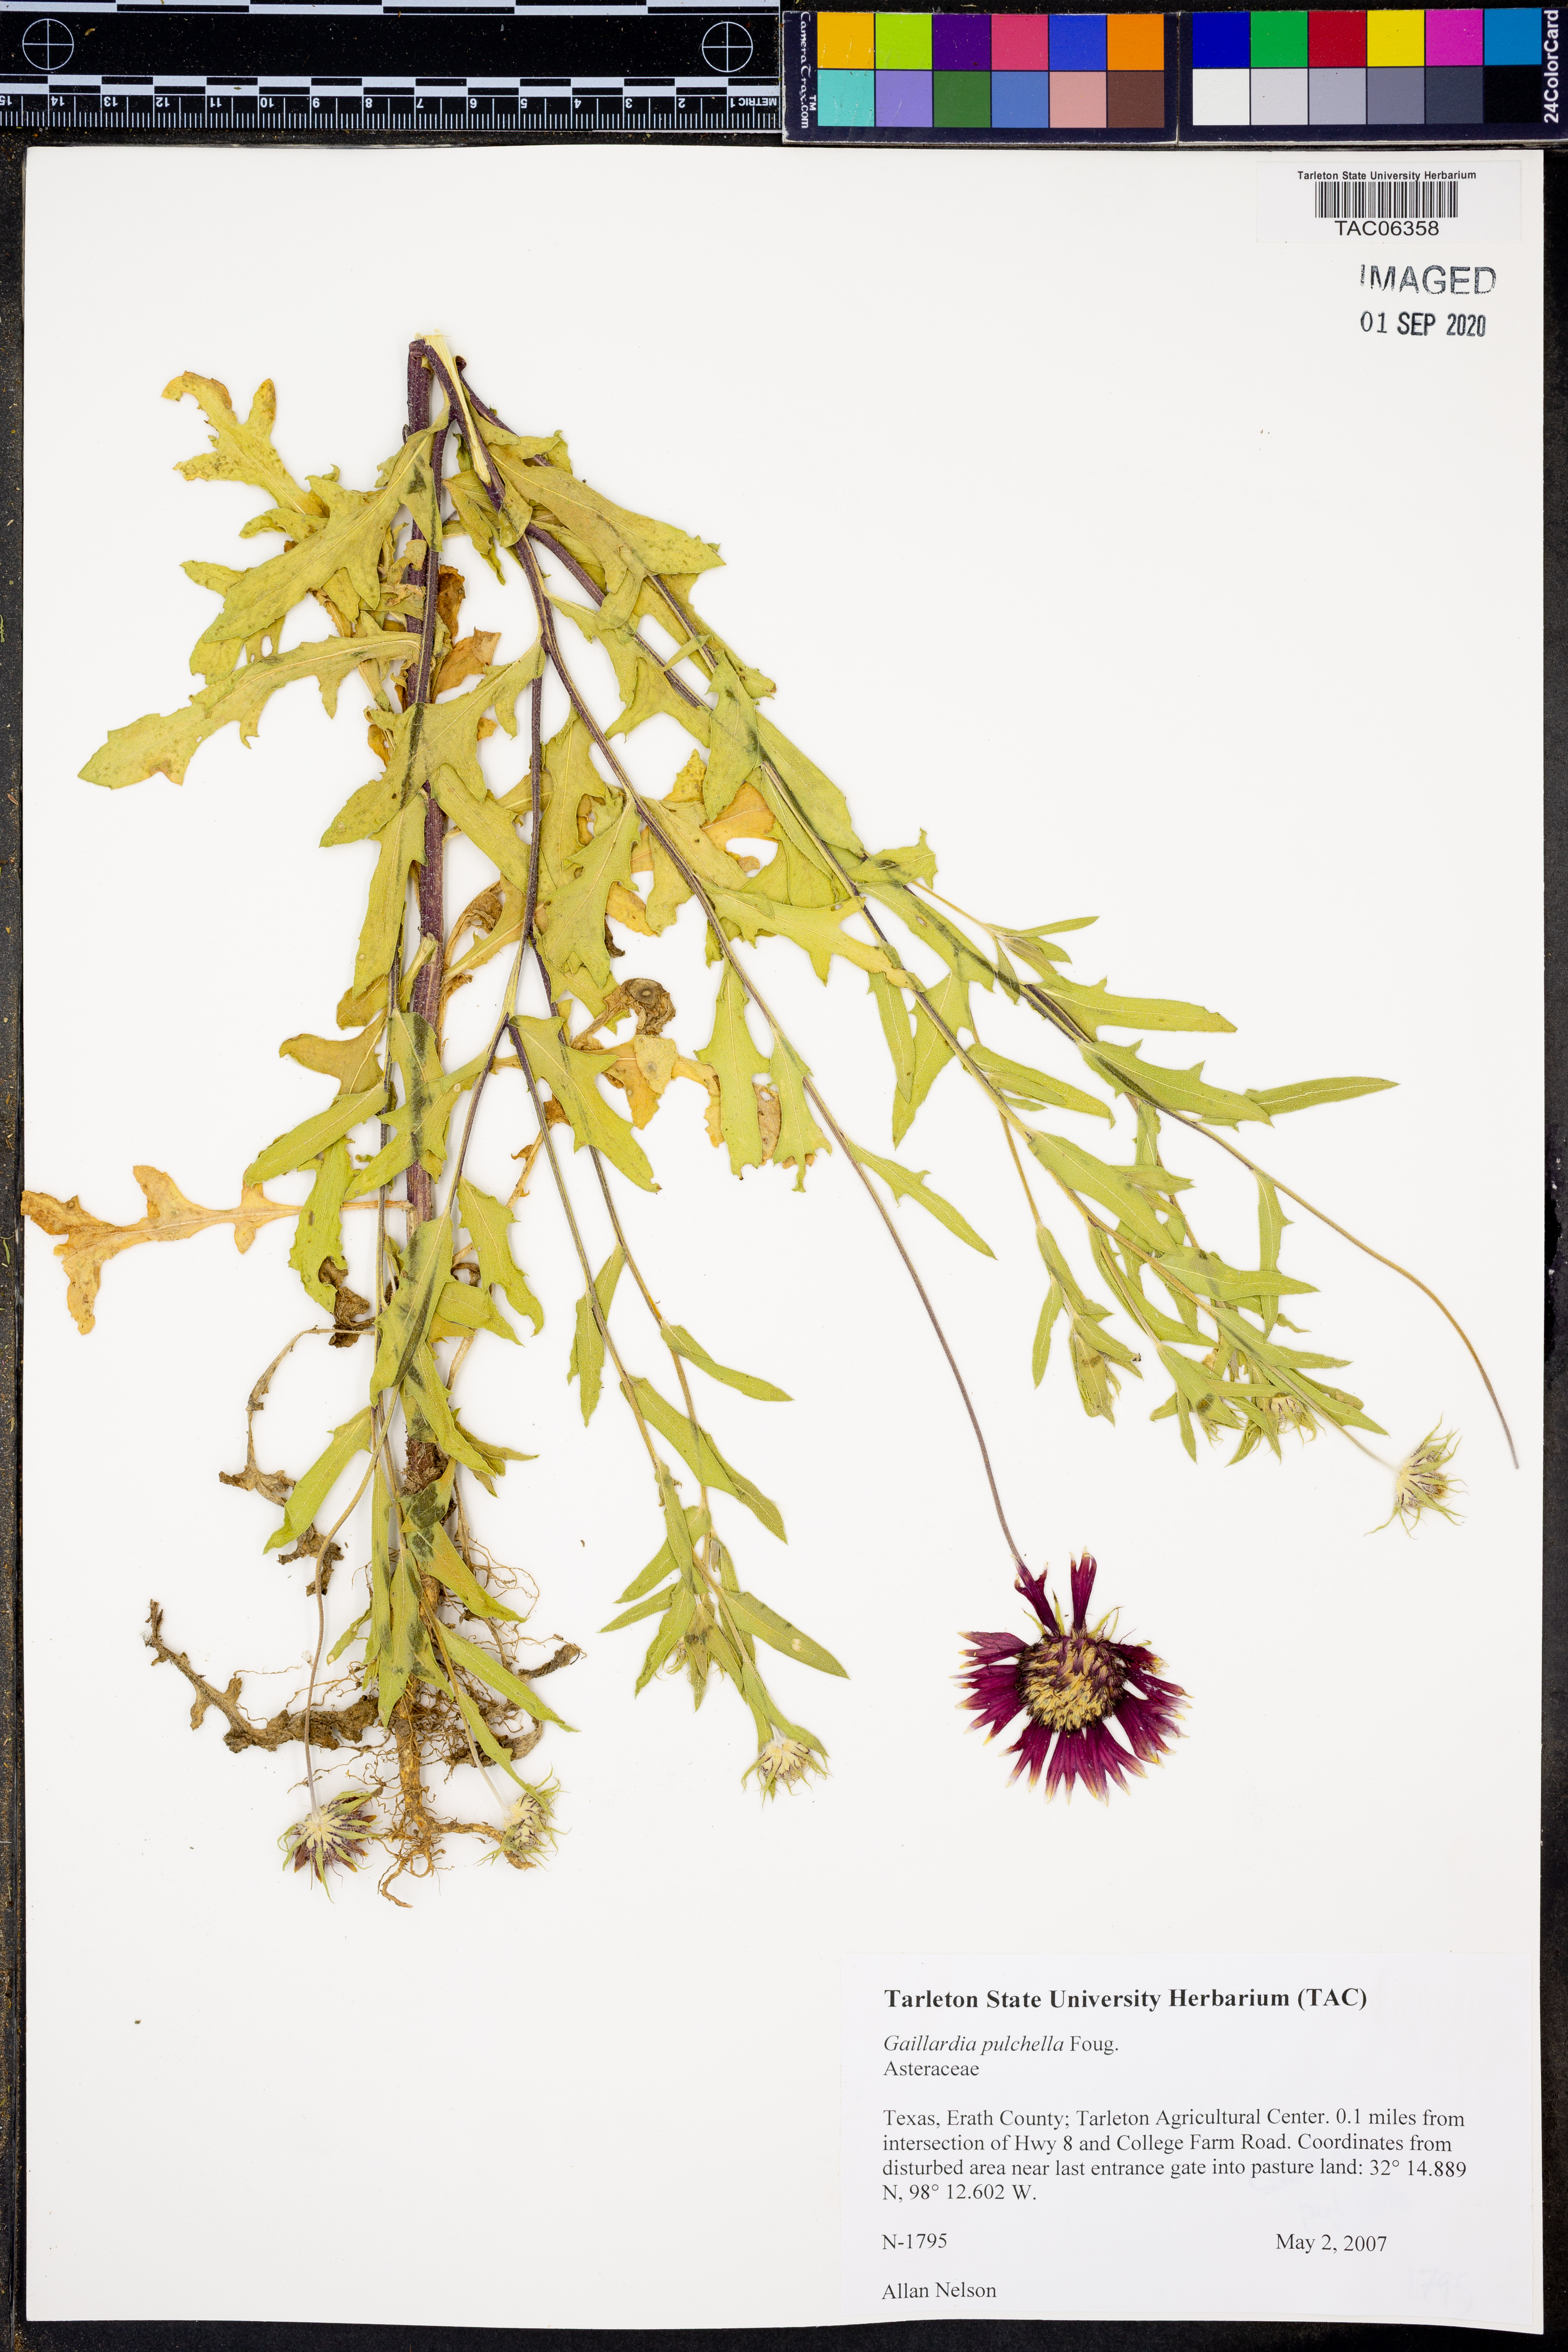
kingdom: Plantae
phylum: Tracheophyta
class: Magnoliopsida
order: Asterales
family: Asteraceae
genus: Gaillardia
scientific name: Gaillardia pulchella
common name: Firewheel
